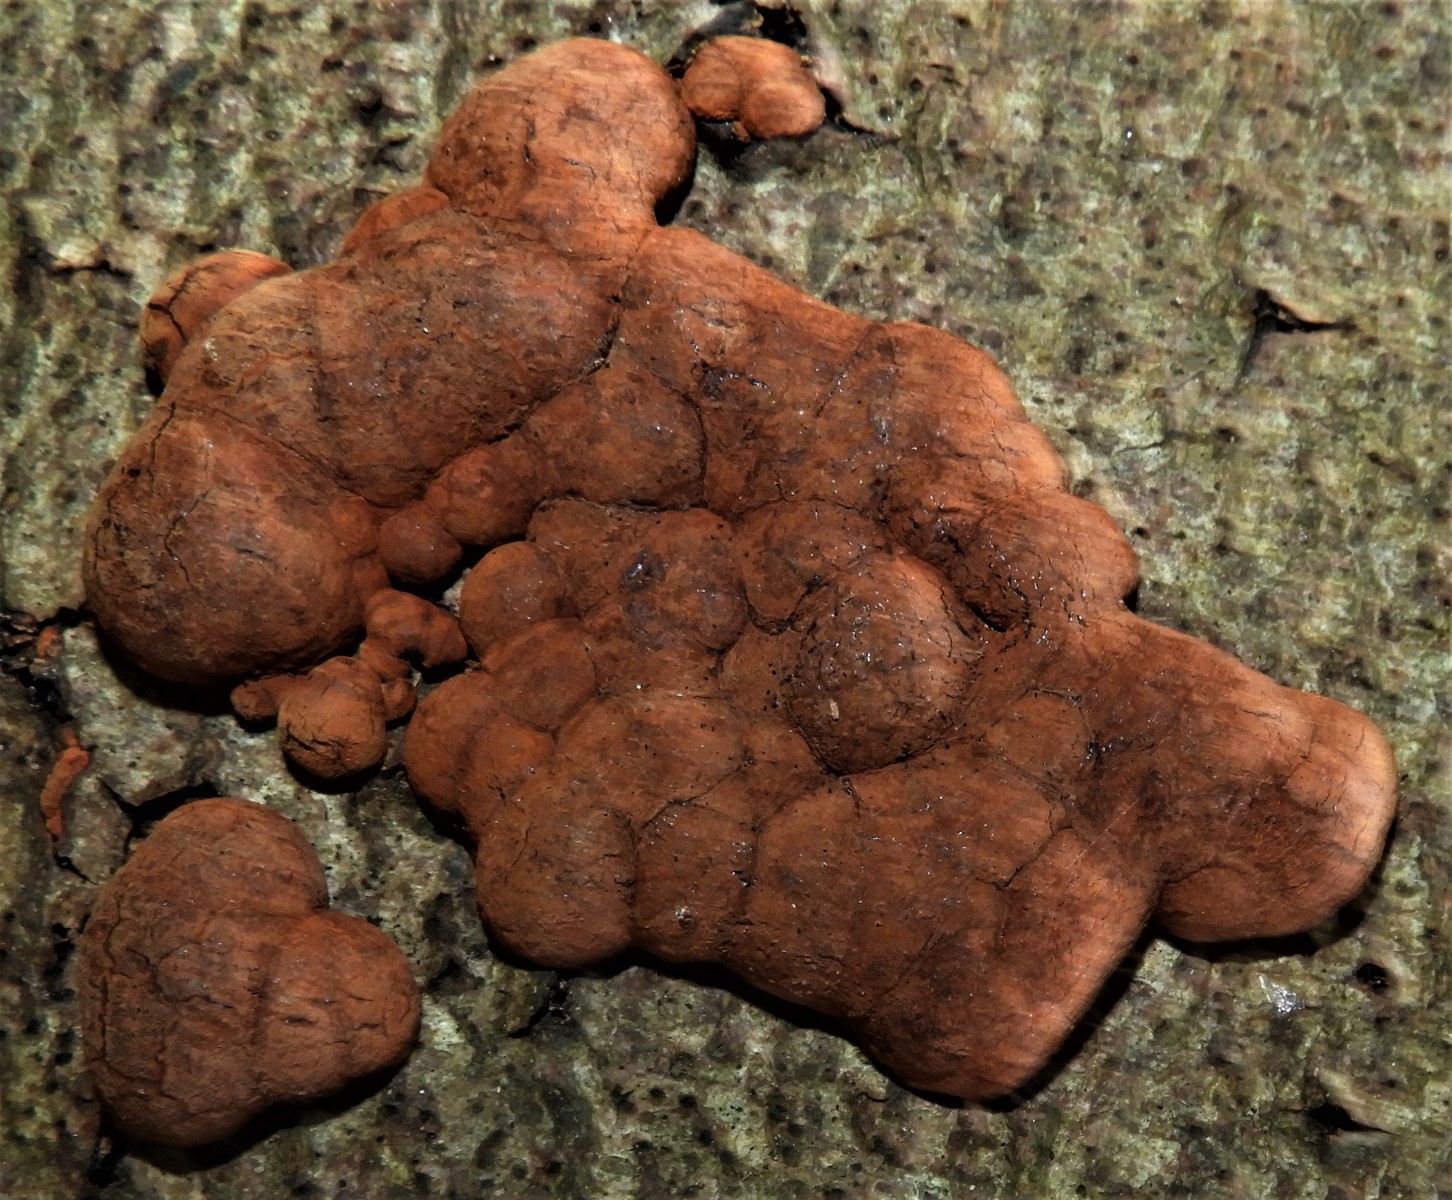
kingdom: Fungi
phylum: Ascomycota
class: Sordariomycetes
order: Xylariales
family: Hypoxylaceae
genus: Hypoxylon
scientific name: Hypoxylon fragiforme
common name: kuljordbær
